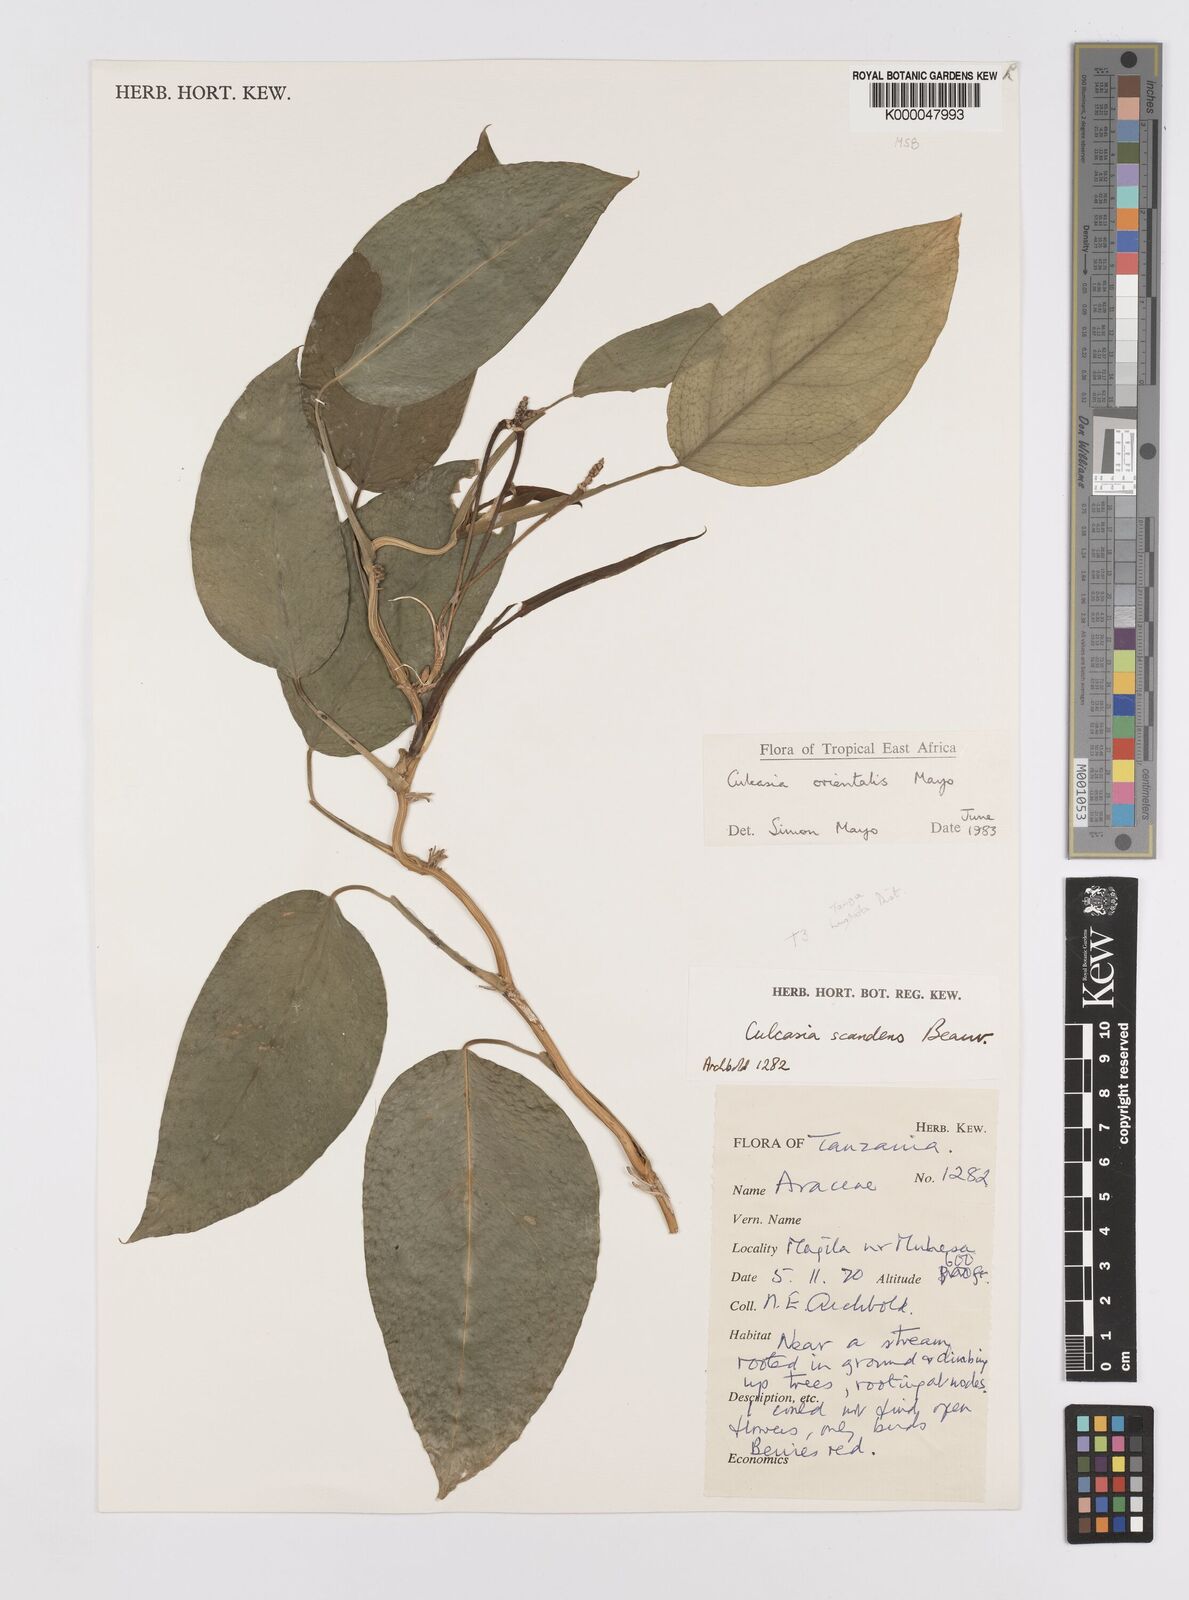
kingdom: Plantae
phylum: Tracheophyta
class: Liliopsida
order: Alismatales
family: Araceae
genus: Culcasia
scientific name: Culcasia orientalis
